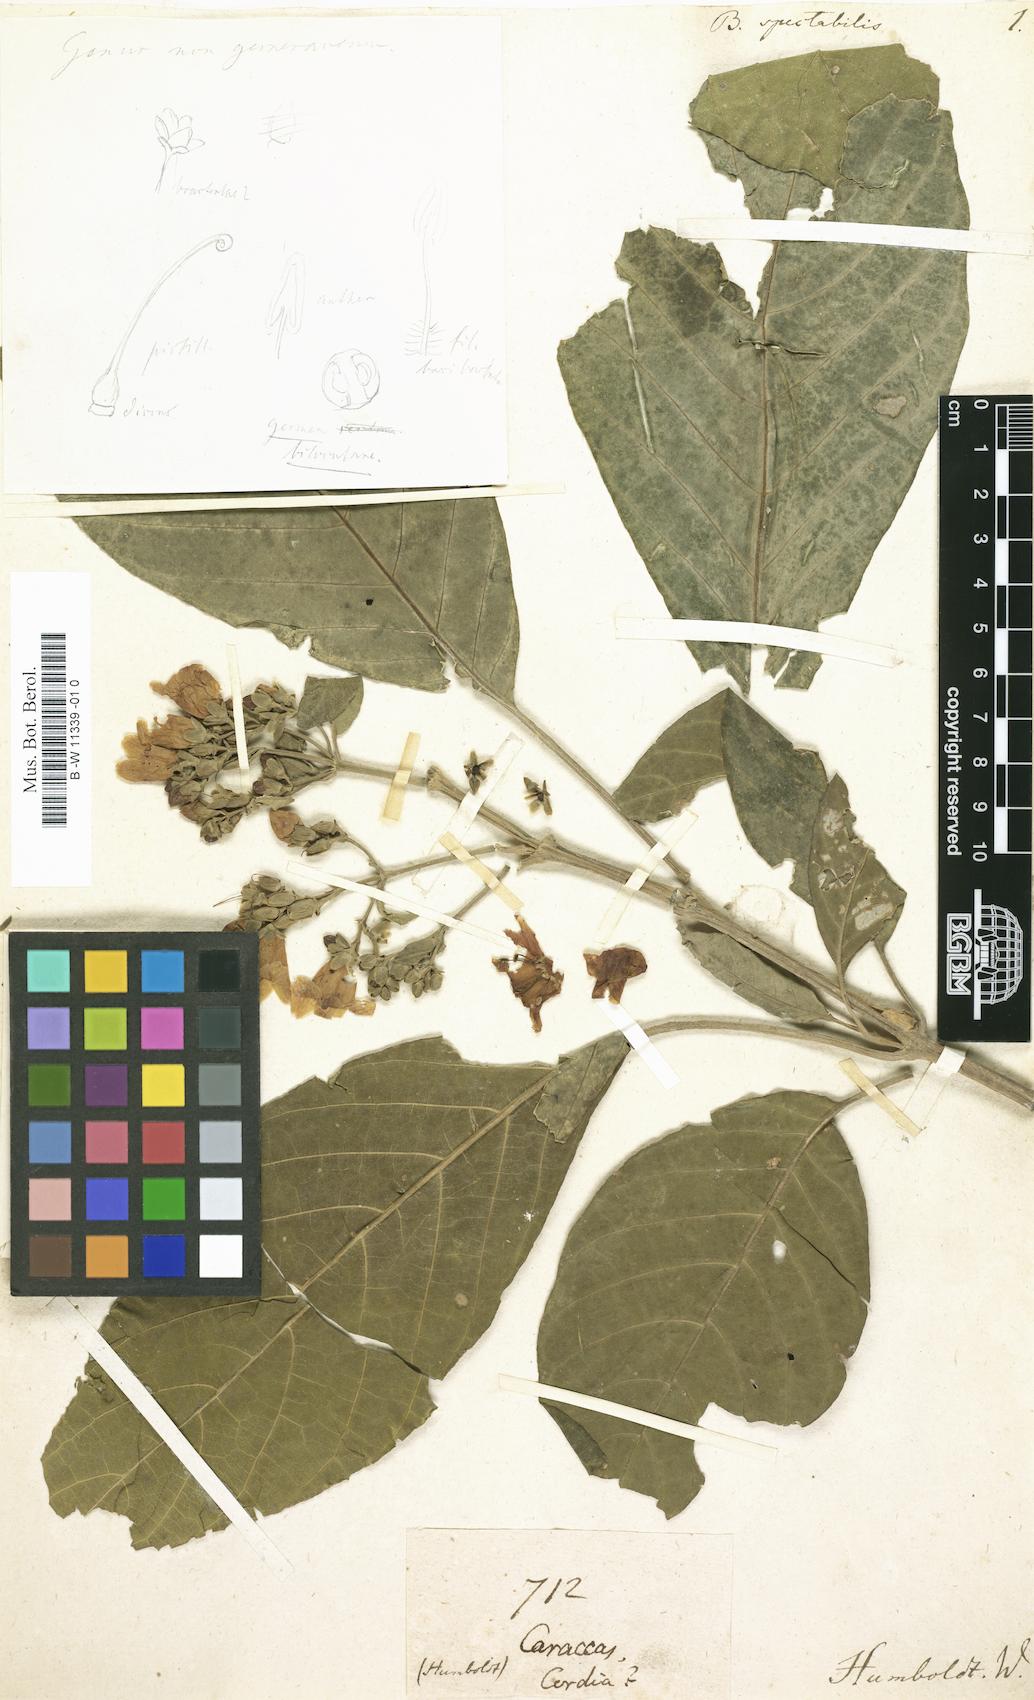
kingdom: Plantae
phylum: Tracheophyta
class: Magnoliopsida
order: Boraginales
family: Cordiaceae
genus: Cordia
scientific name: Cordia spectabilis
